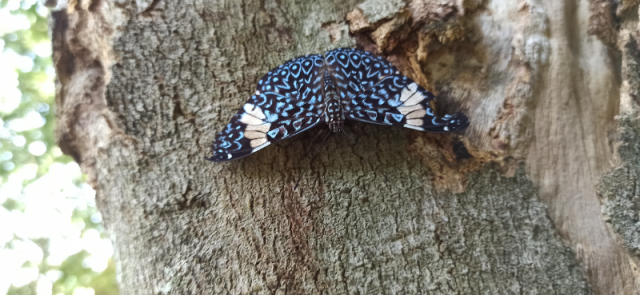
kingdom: Animalia
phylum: Arthropoda
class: Insecta
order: Lepidoptera
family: Nymphalidae
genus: Hamadryas
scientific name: Hamadryas laodamia
